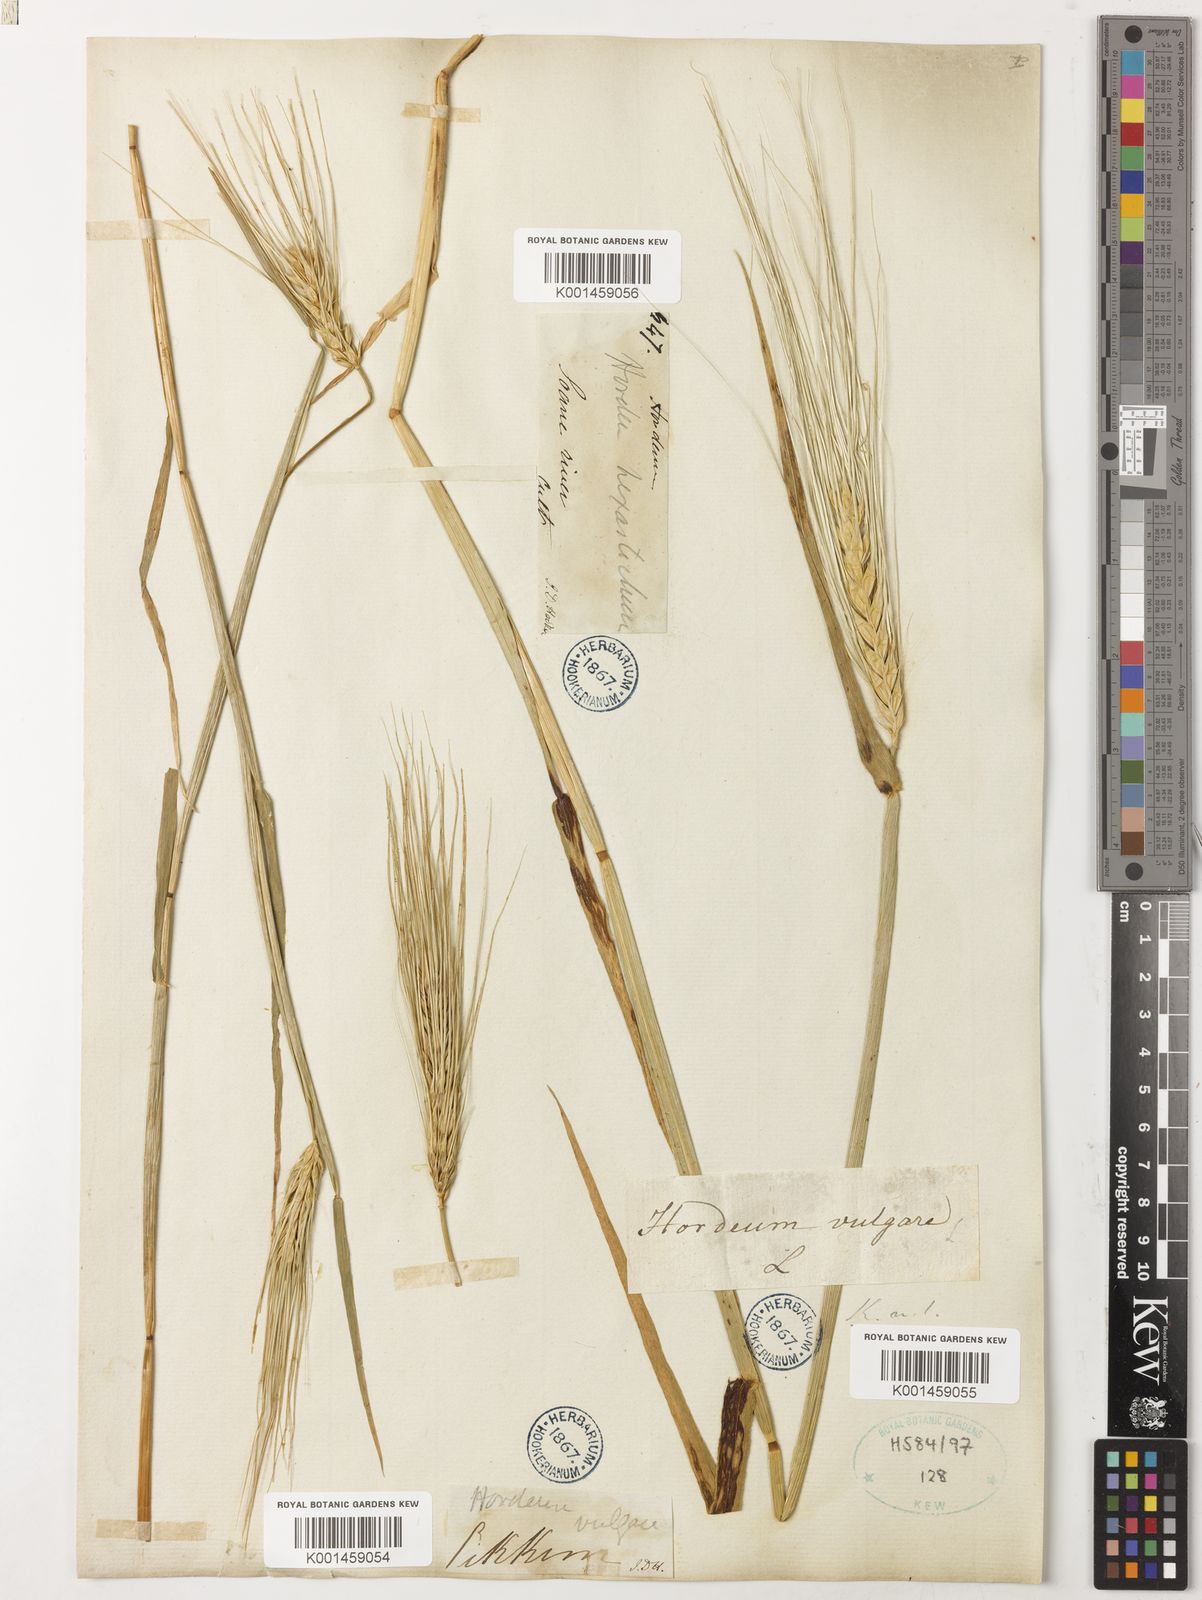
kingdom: Plantae
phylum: Tracheophyta
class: Liliopsida
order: Poales
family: Poaceae
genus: Hordeum
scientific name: Hordeum vulgare
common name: Common barley
